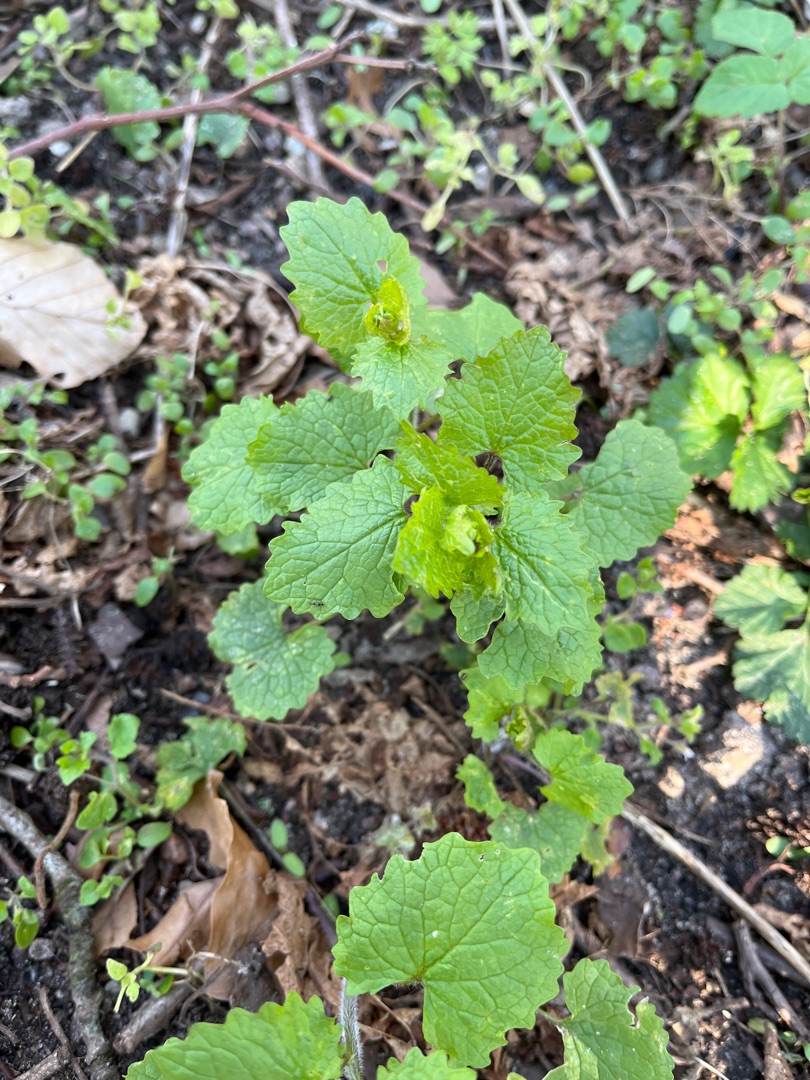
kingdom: Plantae
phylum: Tracheophyta
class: Magnoliopsida
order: Brassicales
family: Brassicaceae
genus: Alliaria
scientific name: Alliaria petiolata
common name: Løgkarse
